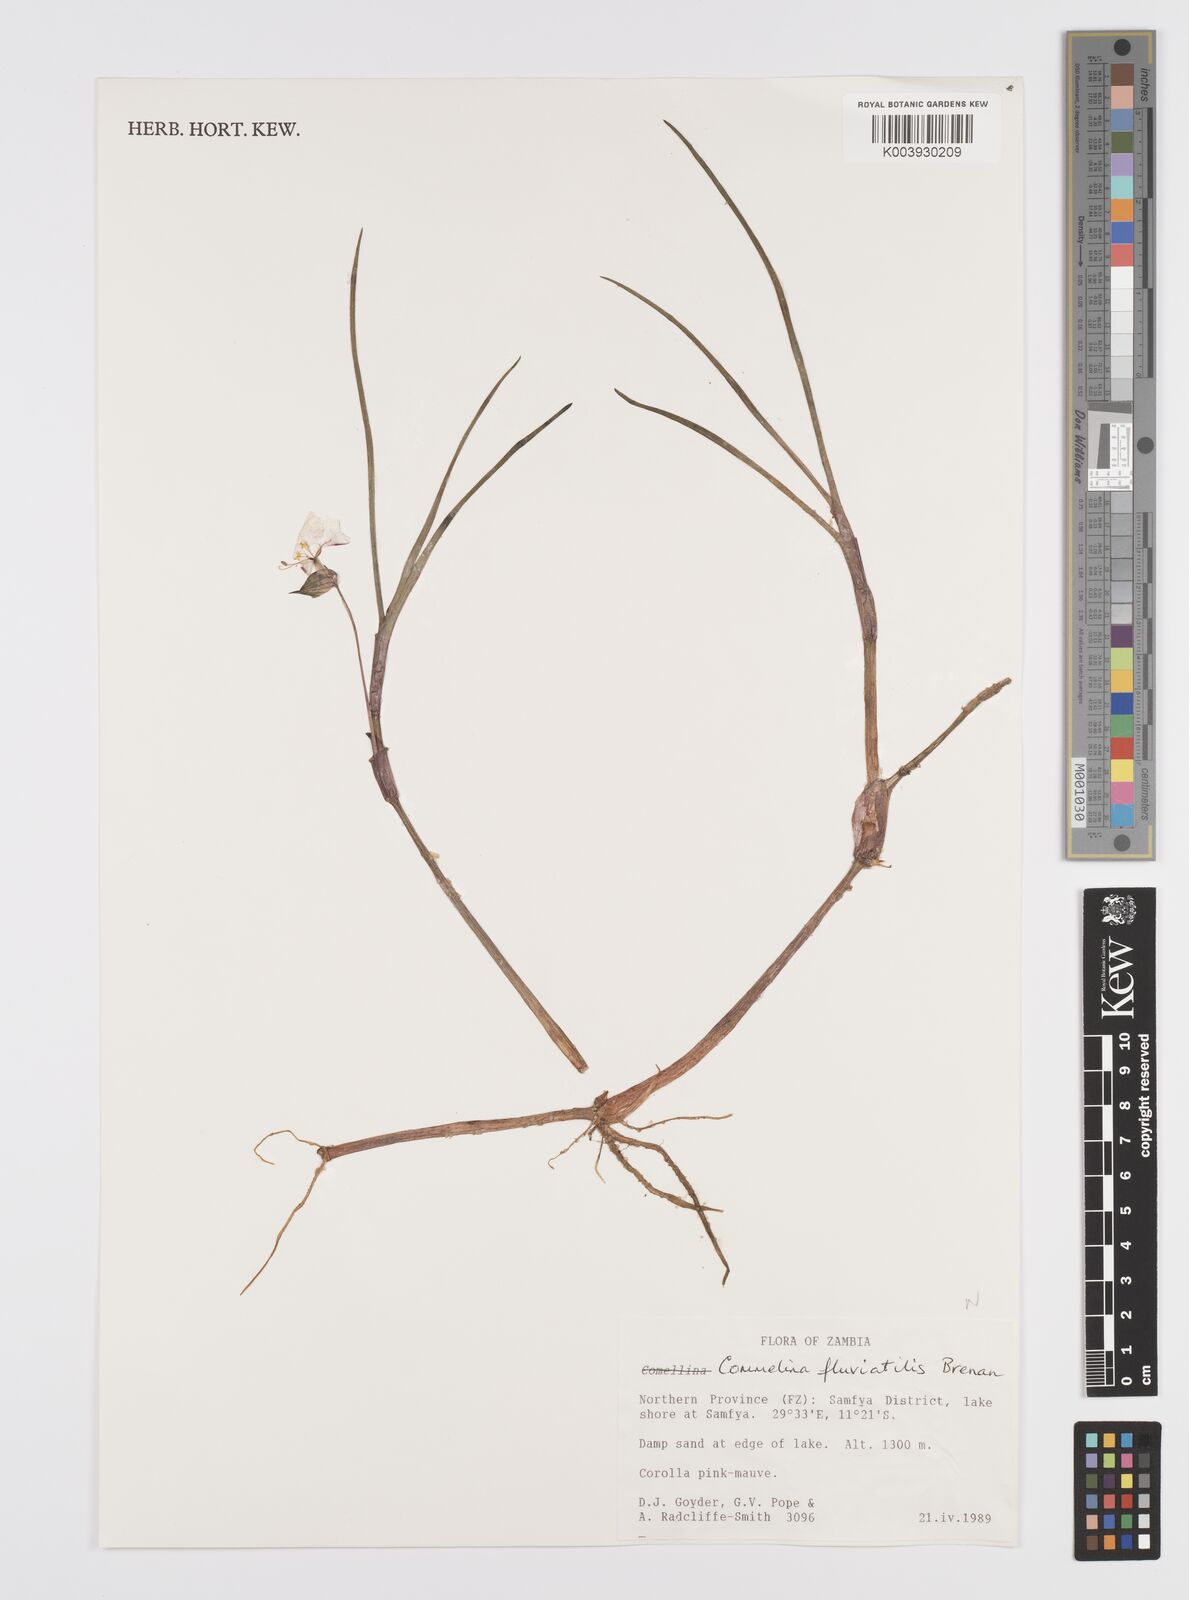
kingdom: Plantae
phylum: Tracheophyta
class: Liliopsida
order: Commelinales
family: Commelinaceae
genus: Commelina
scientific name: Commelina fluviatilis
